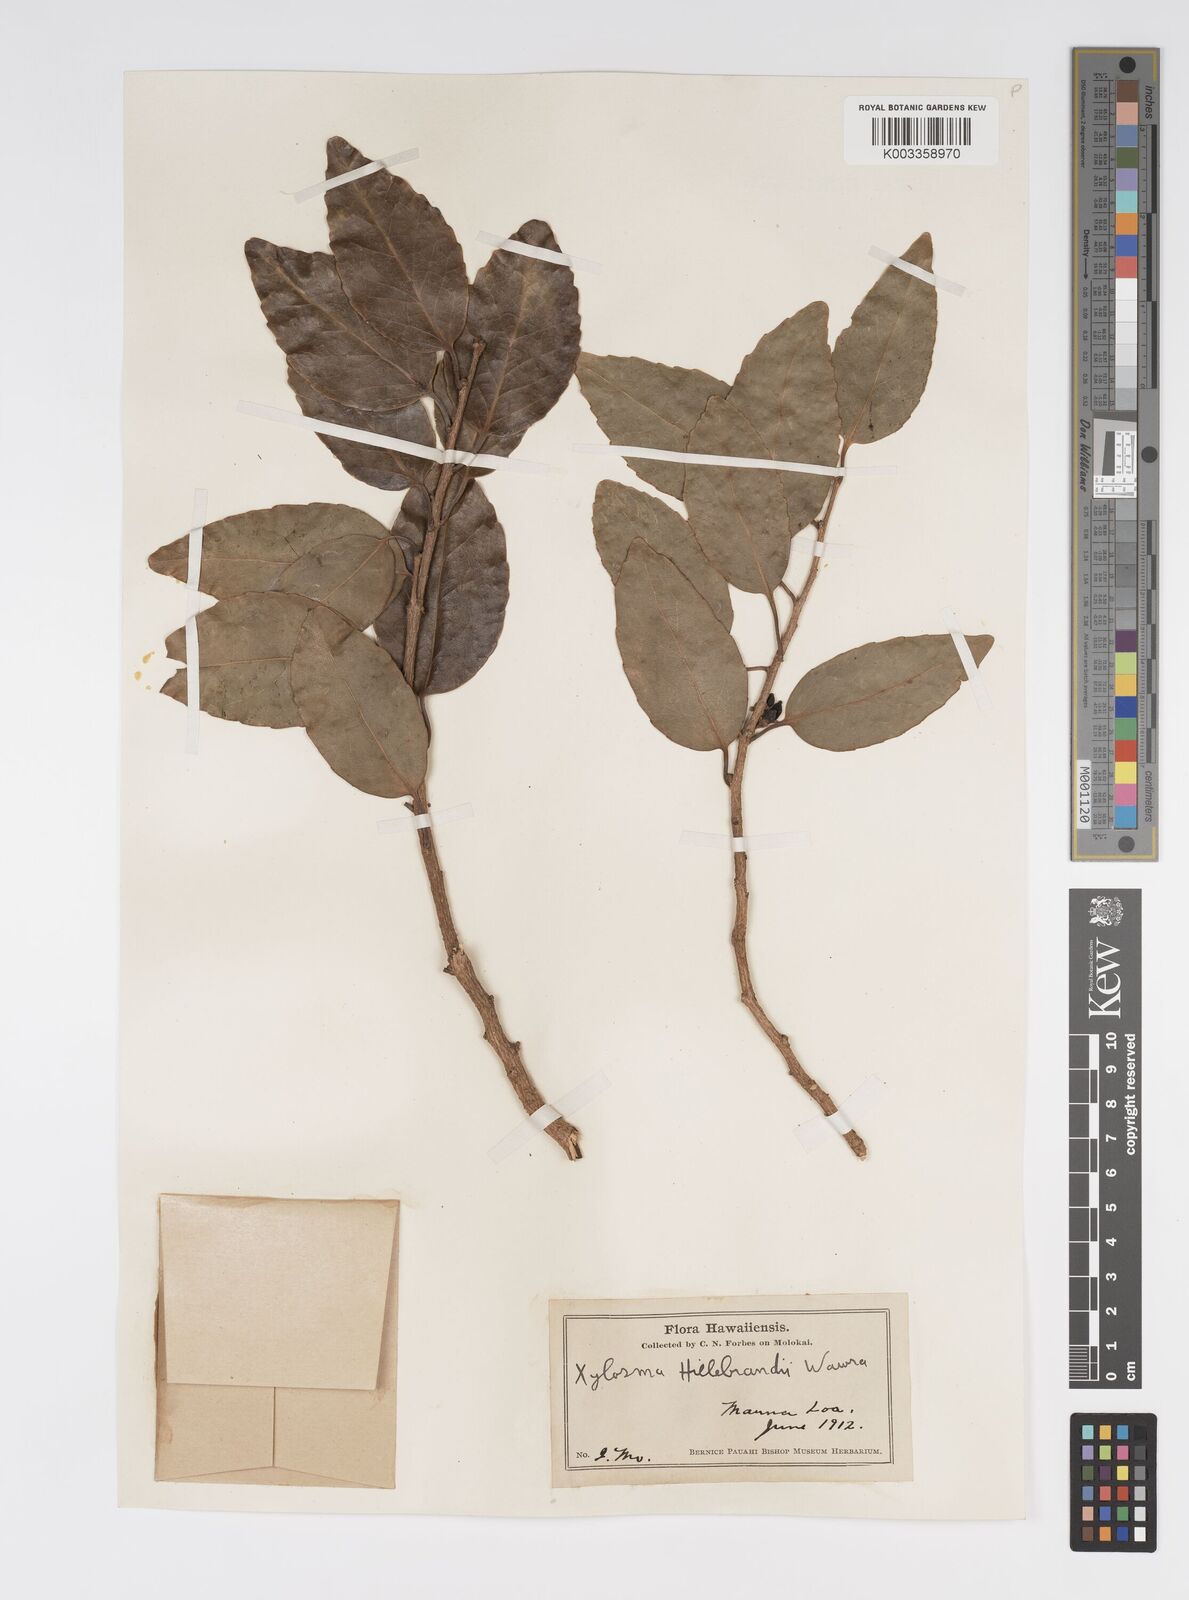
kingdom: Plantae
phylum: Tracheophyta
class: Magnoliopsida
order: Malpighiales
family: Salicaceae
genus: Xylosma
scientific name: Xylosma hawaiense
